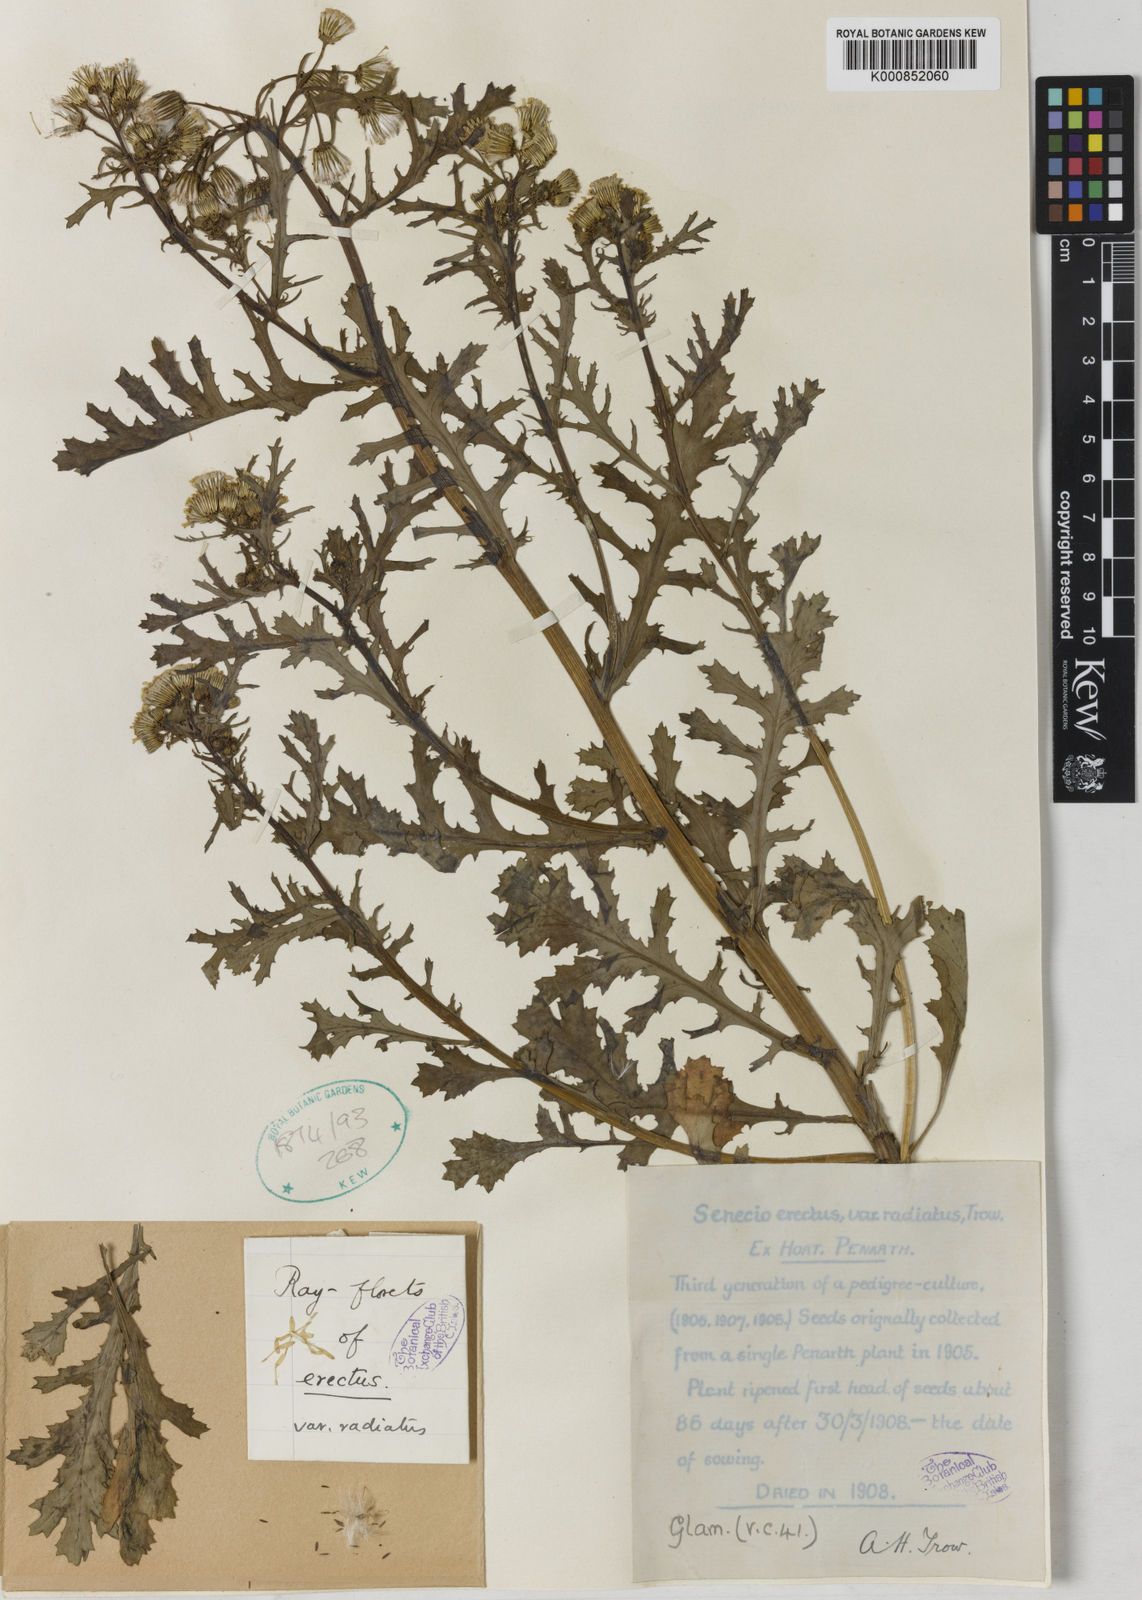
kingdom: Plantae
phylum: Tracheophyta
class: Magnoliopsida
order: Asterales
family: Asteraceae
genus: Senecio
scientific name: Senecio vulgaris
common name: Old-man-in-the-spring
